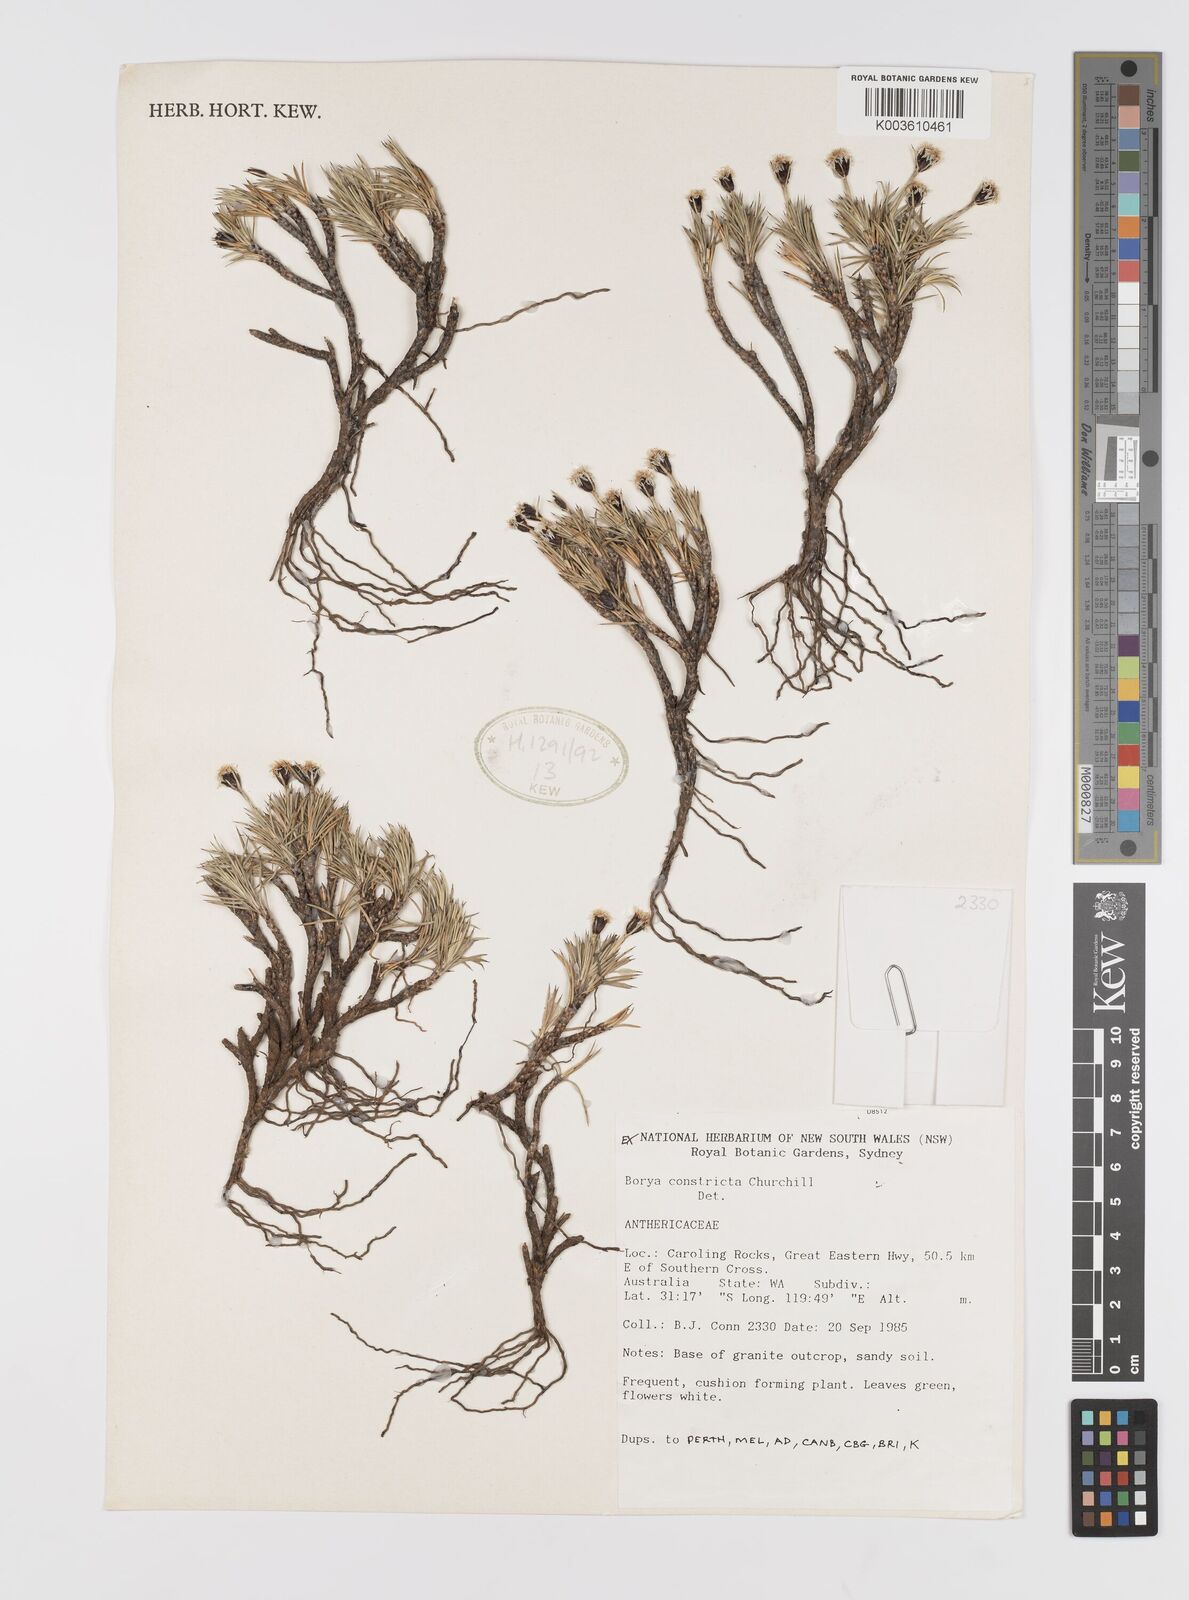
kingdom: Plantae
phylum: Tracheophyta
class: Liliopsida
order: Asparagales
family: Boryaceae
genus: Borya
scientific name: Borya constricta
